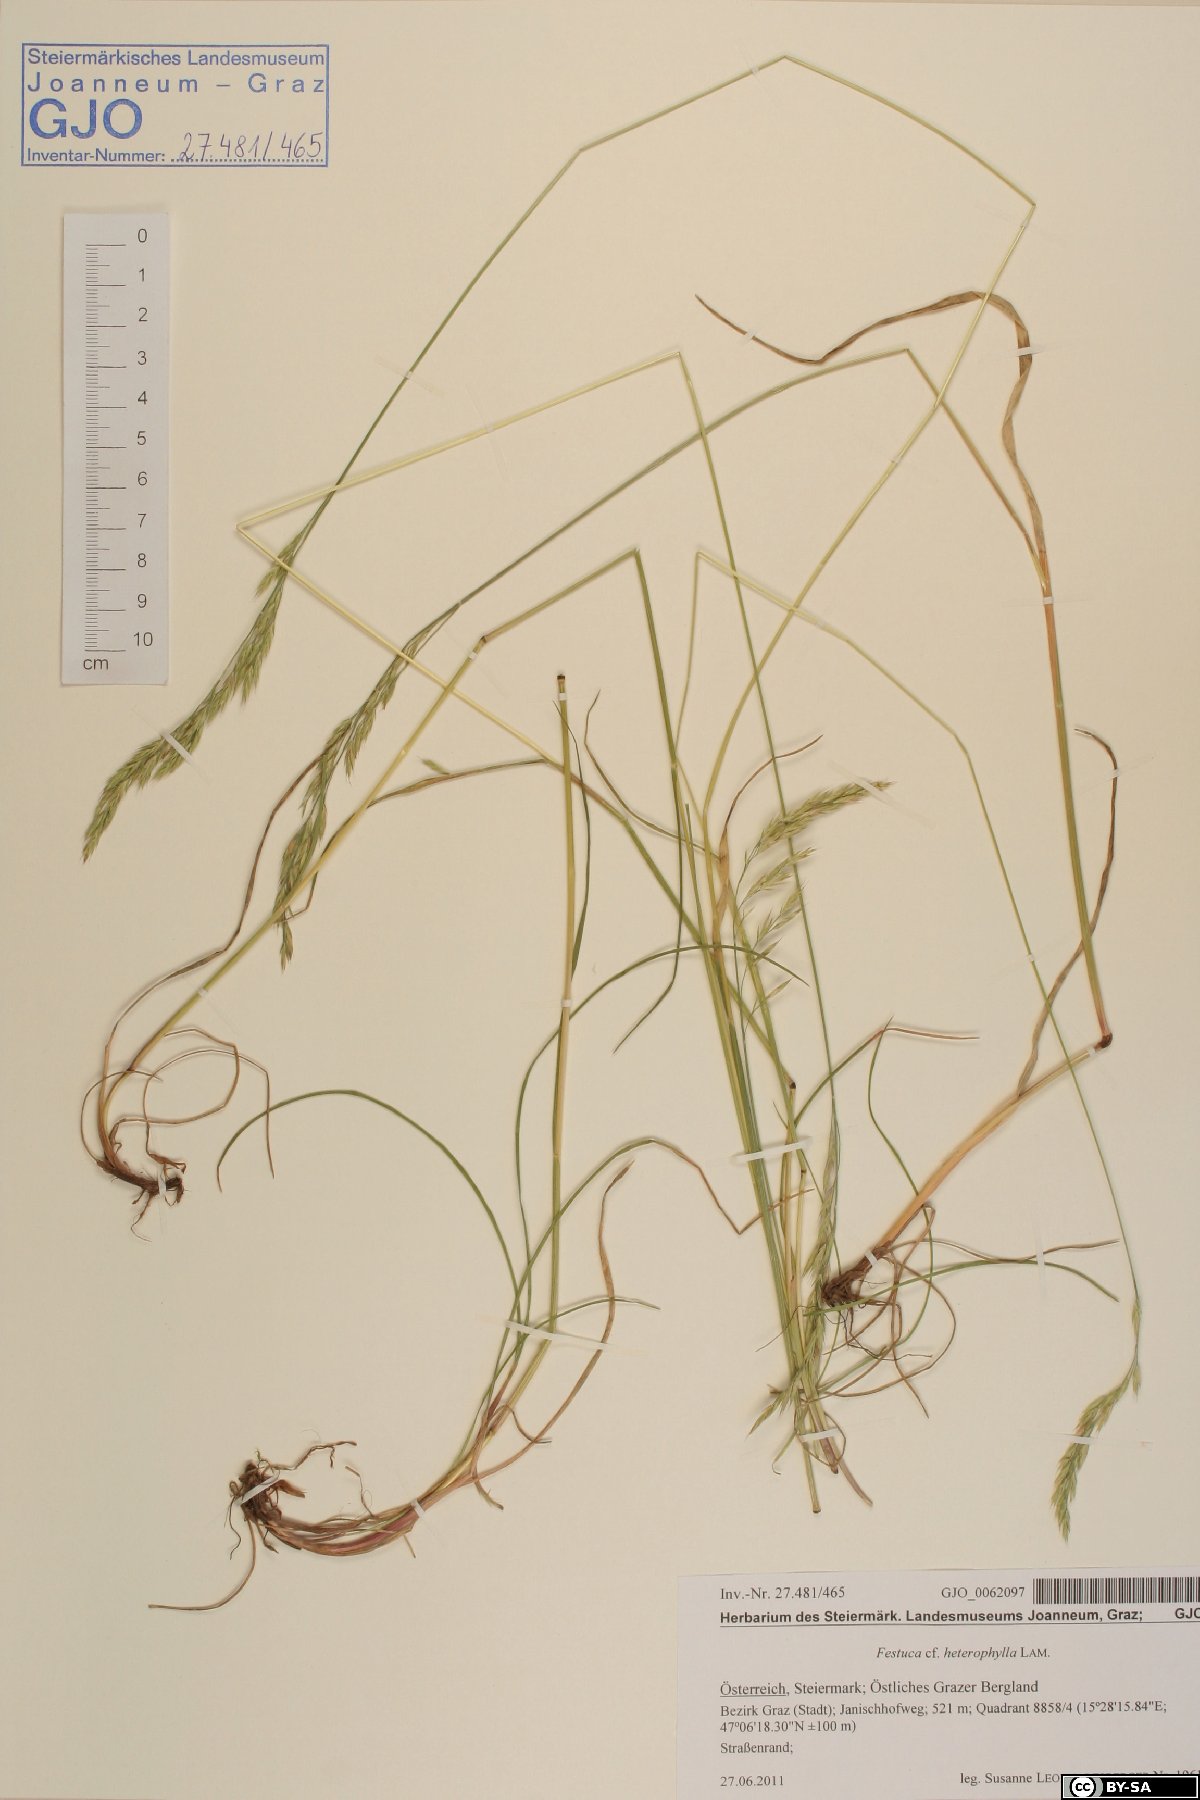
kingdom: Plantae
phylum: Tracheophyta
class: Liliopsida
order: Poales
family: Poaceae
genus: Festuca
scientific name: Festuca rubra
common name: Red fescue
